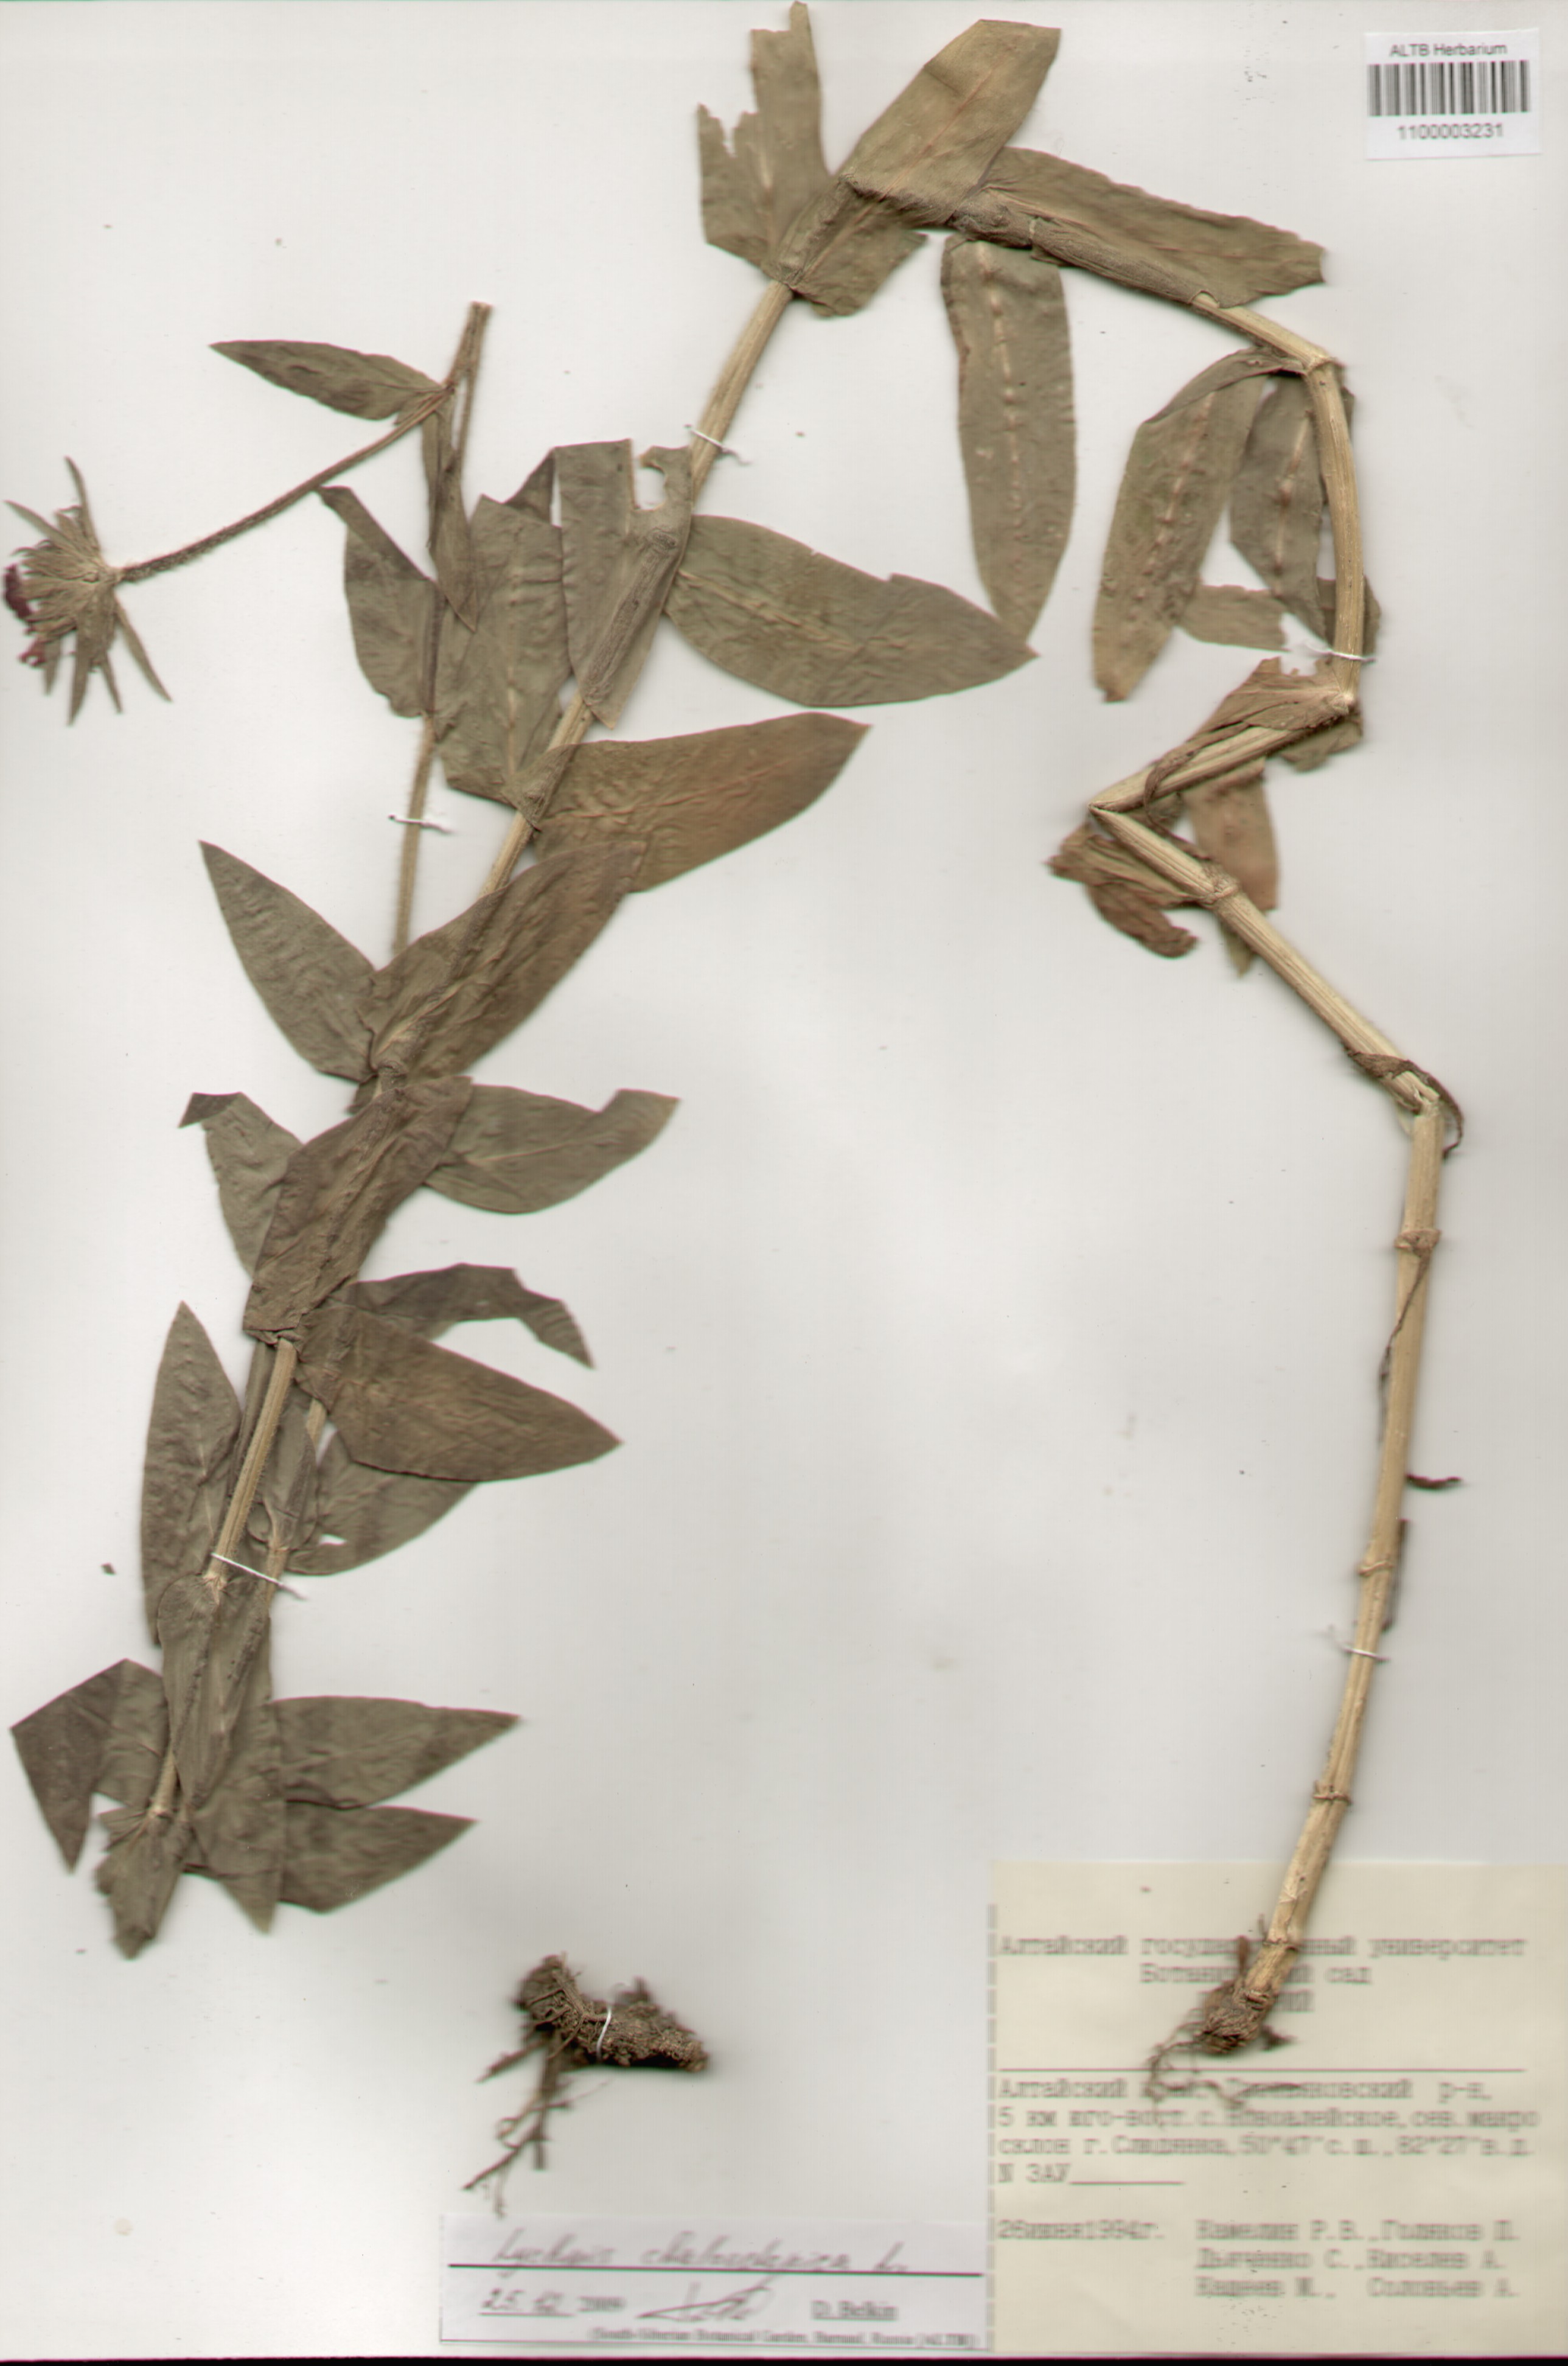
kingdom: Plantae
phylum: Tracheophyta
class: Magnoliopsida
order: Caryophyllales
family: Caryophyllaceae
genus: Silene
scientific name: Silene chalcedonica
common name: Maltese-cross
